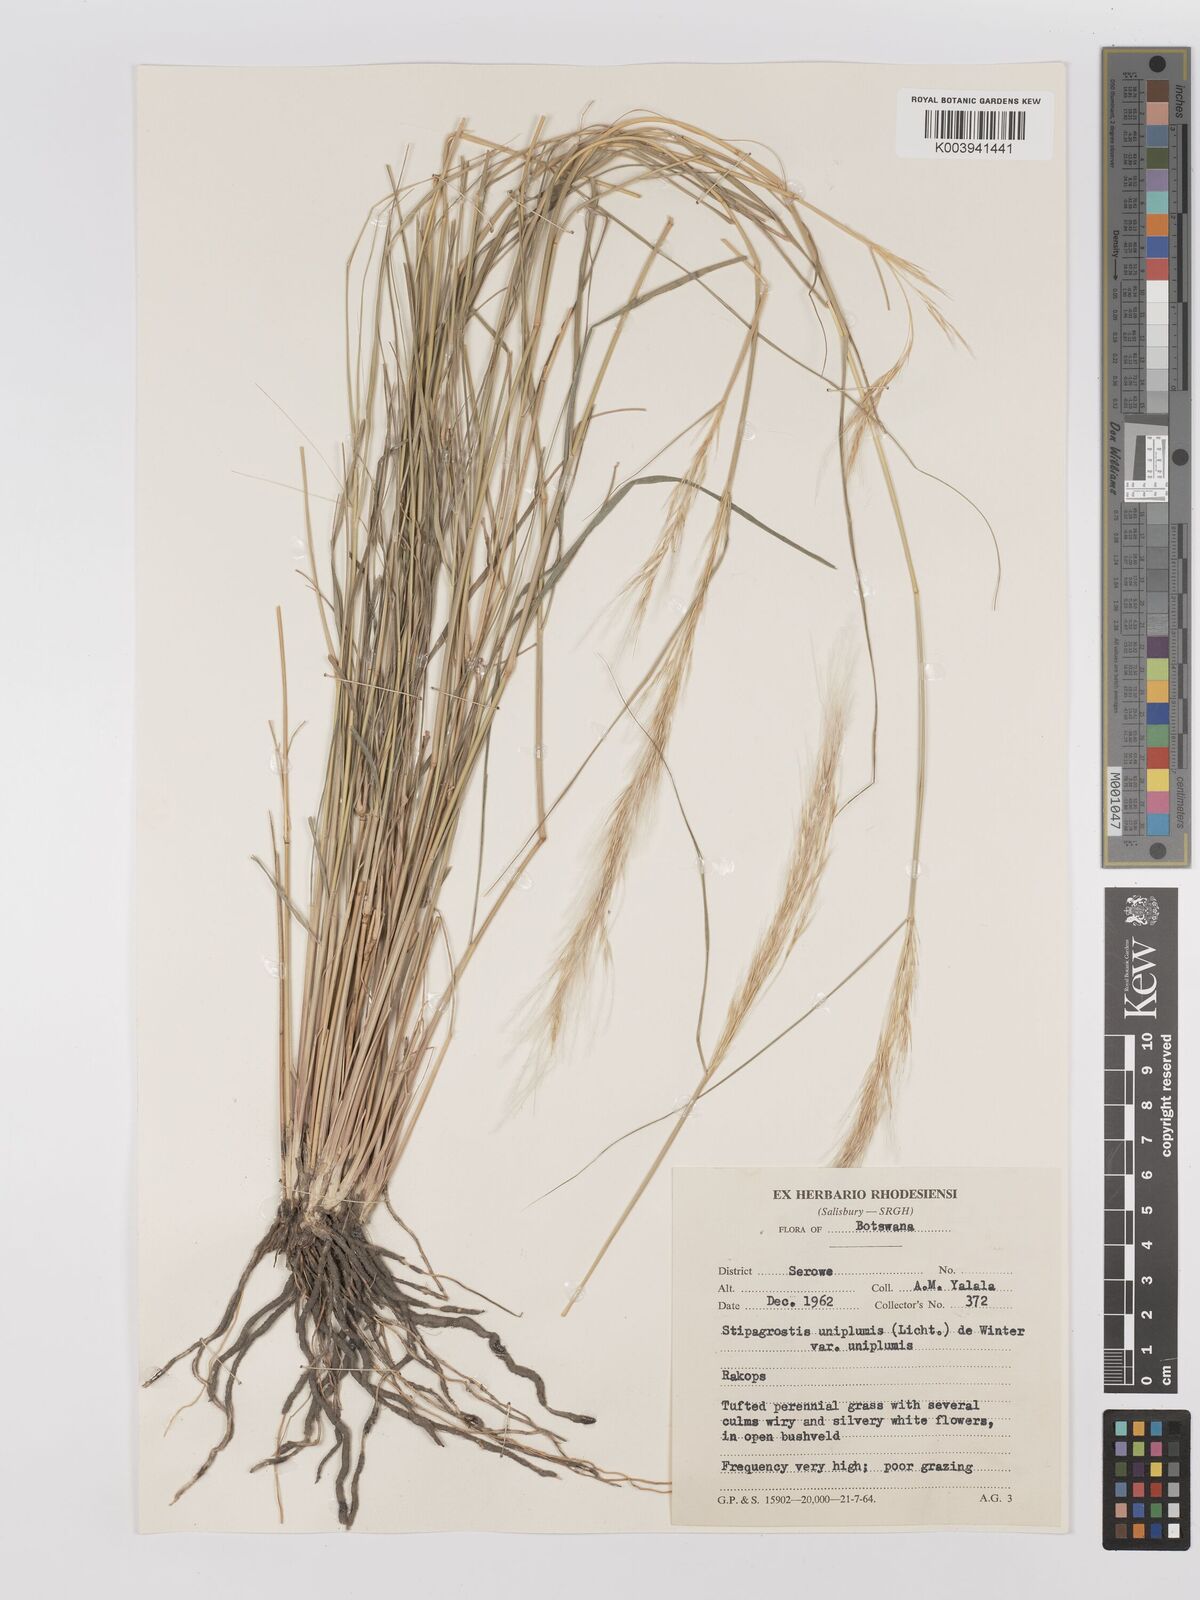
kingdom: Plantae
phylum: Tracheophyta
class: Liliopsida
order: Poales
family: Poaceae
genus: Stipagrostis
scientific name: Stipagrostis uniplumis
